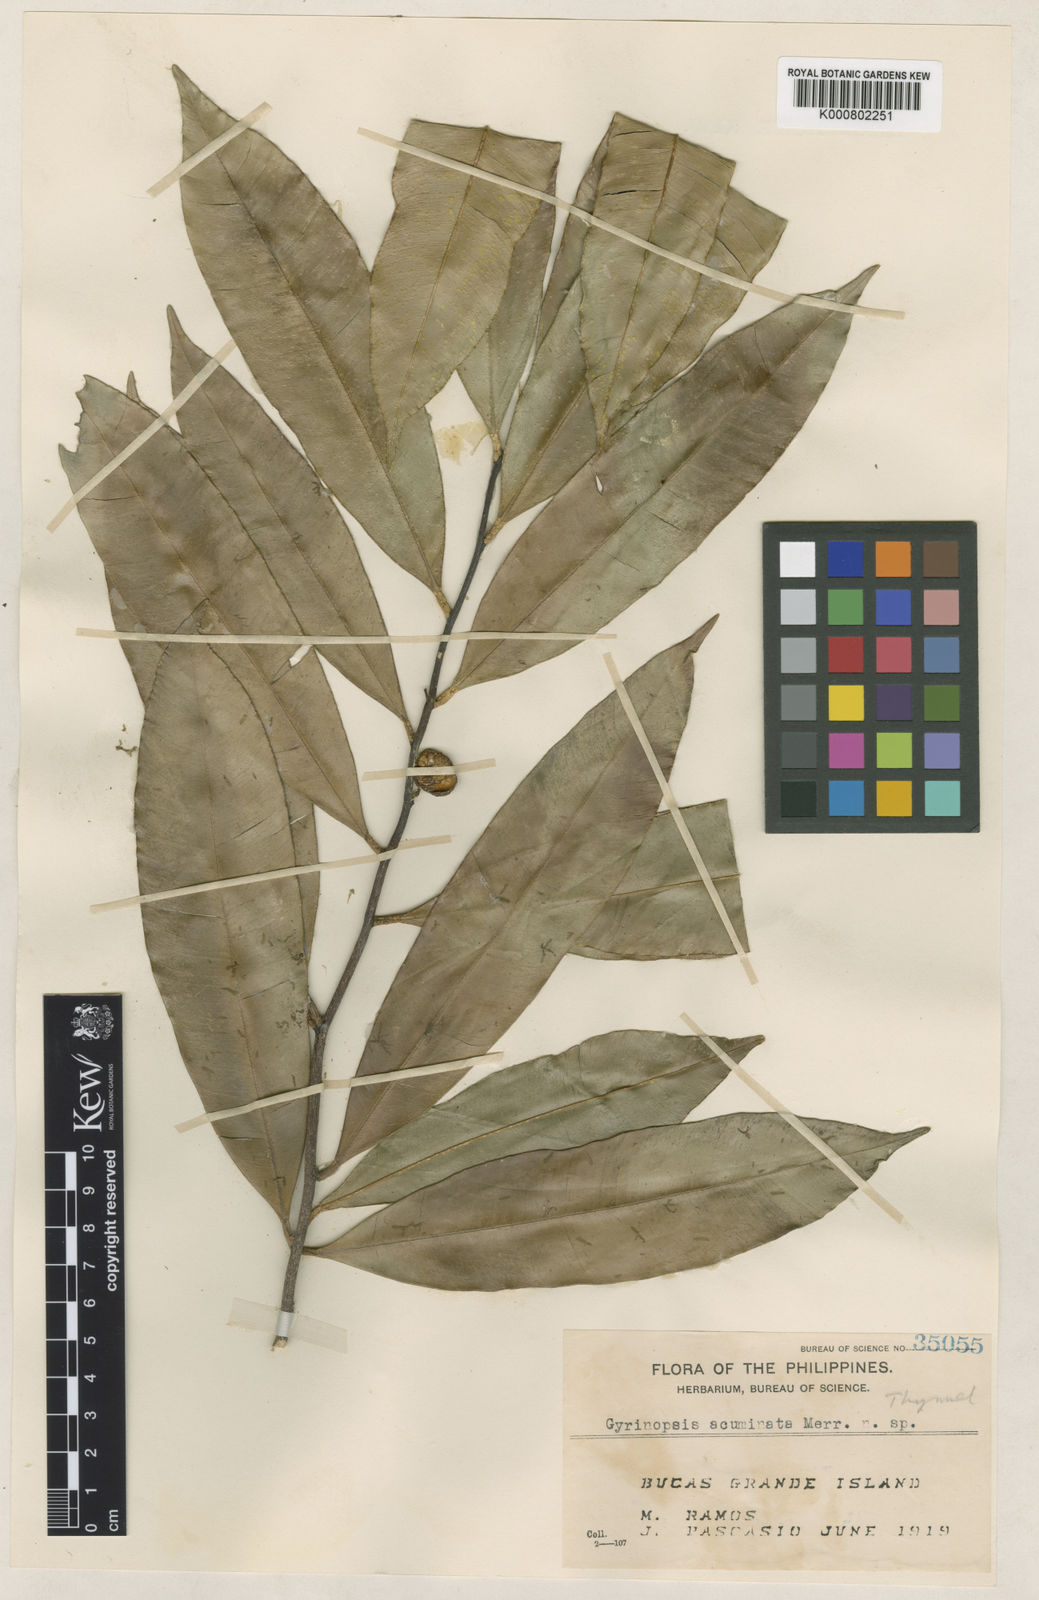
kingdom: Plantae
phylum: Tracheophyta
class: Magnoliopsida
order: Malvales
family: Thymelaeaceae
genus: Aquilaria
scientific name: Aquilaria
